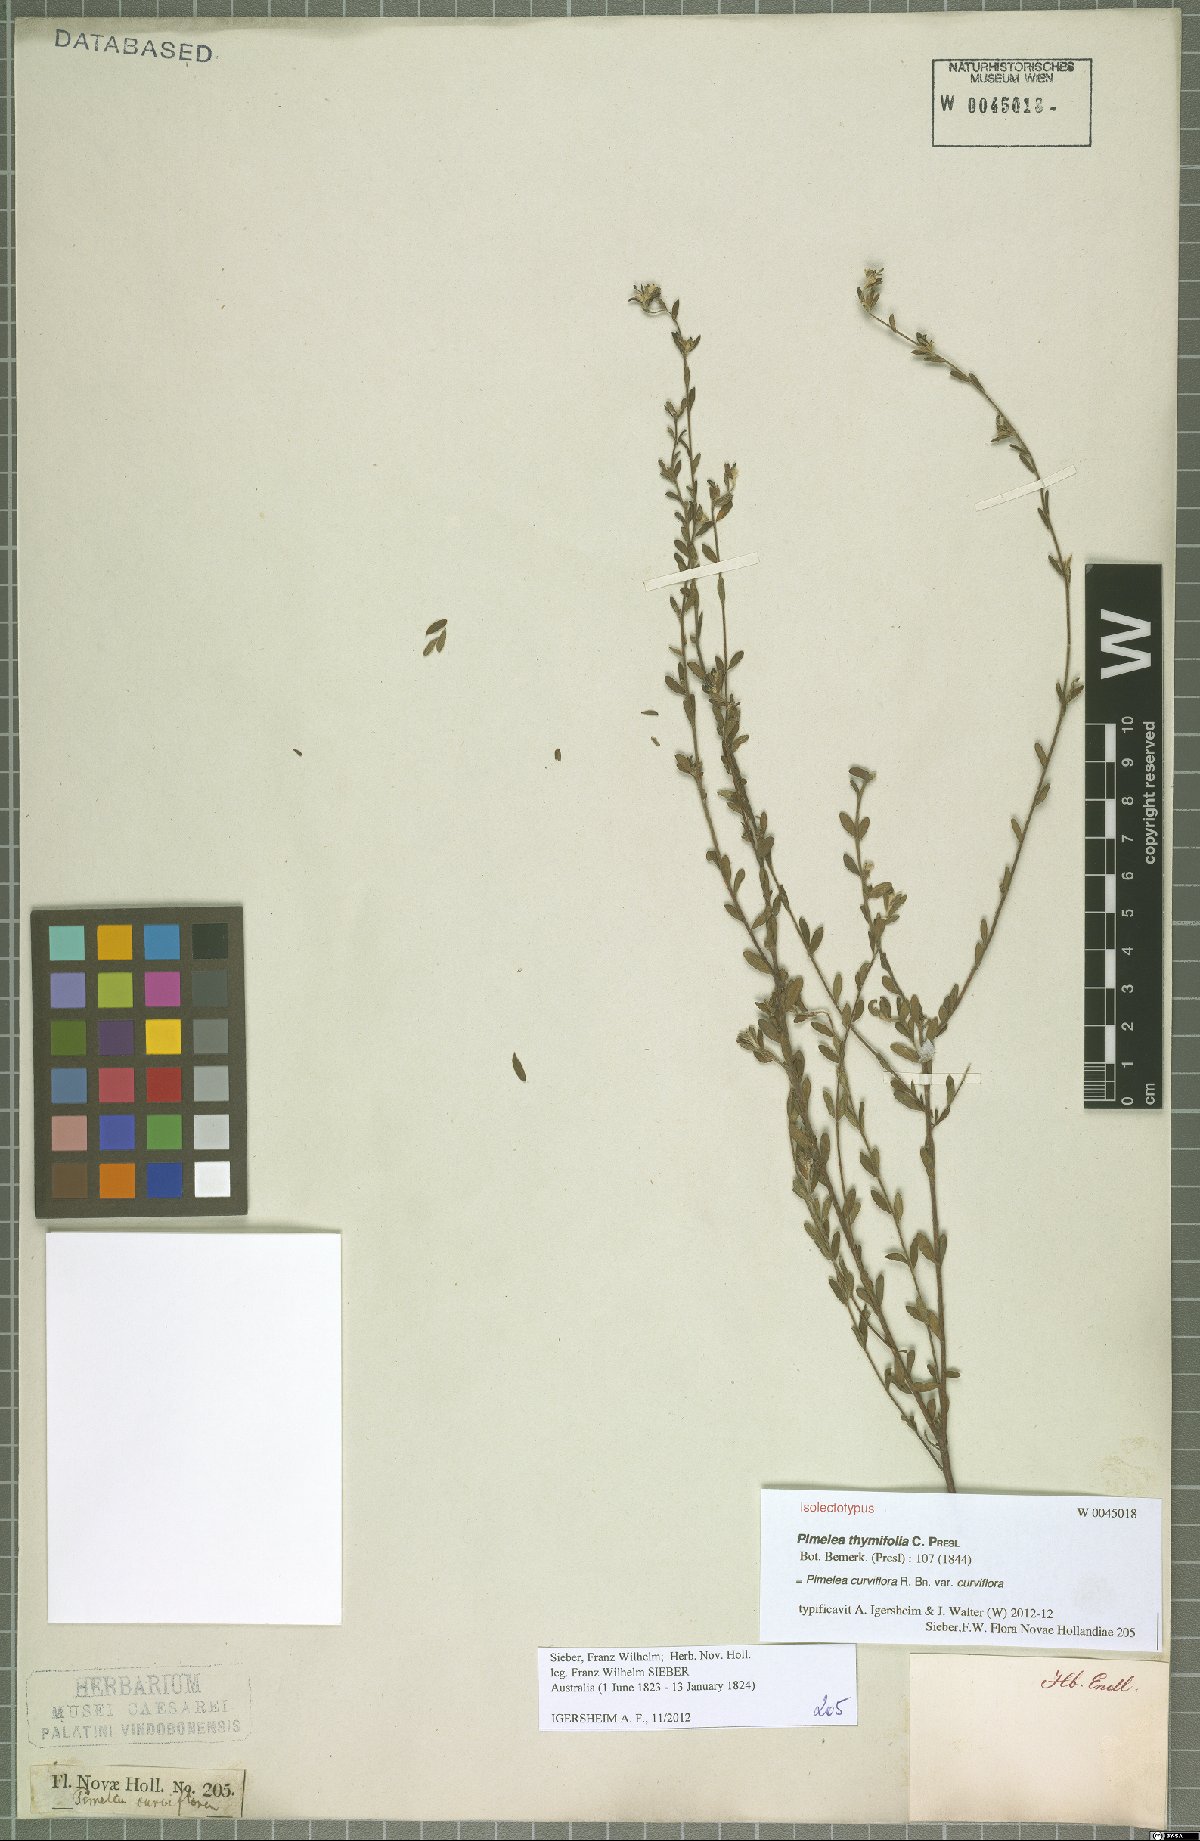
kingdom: Plantae
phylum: Tracheophyta
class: Magnoliopsida
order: Malvales
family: Thymelaeaceae
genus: Pimelea
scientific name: Pimelea curviflora
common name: Curved riceflower
